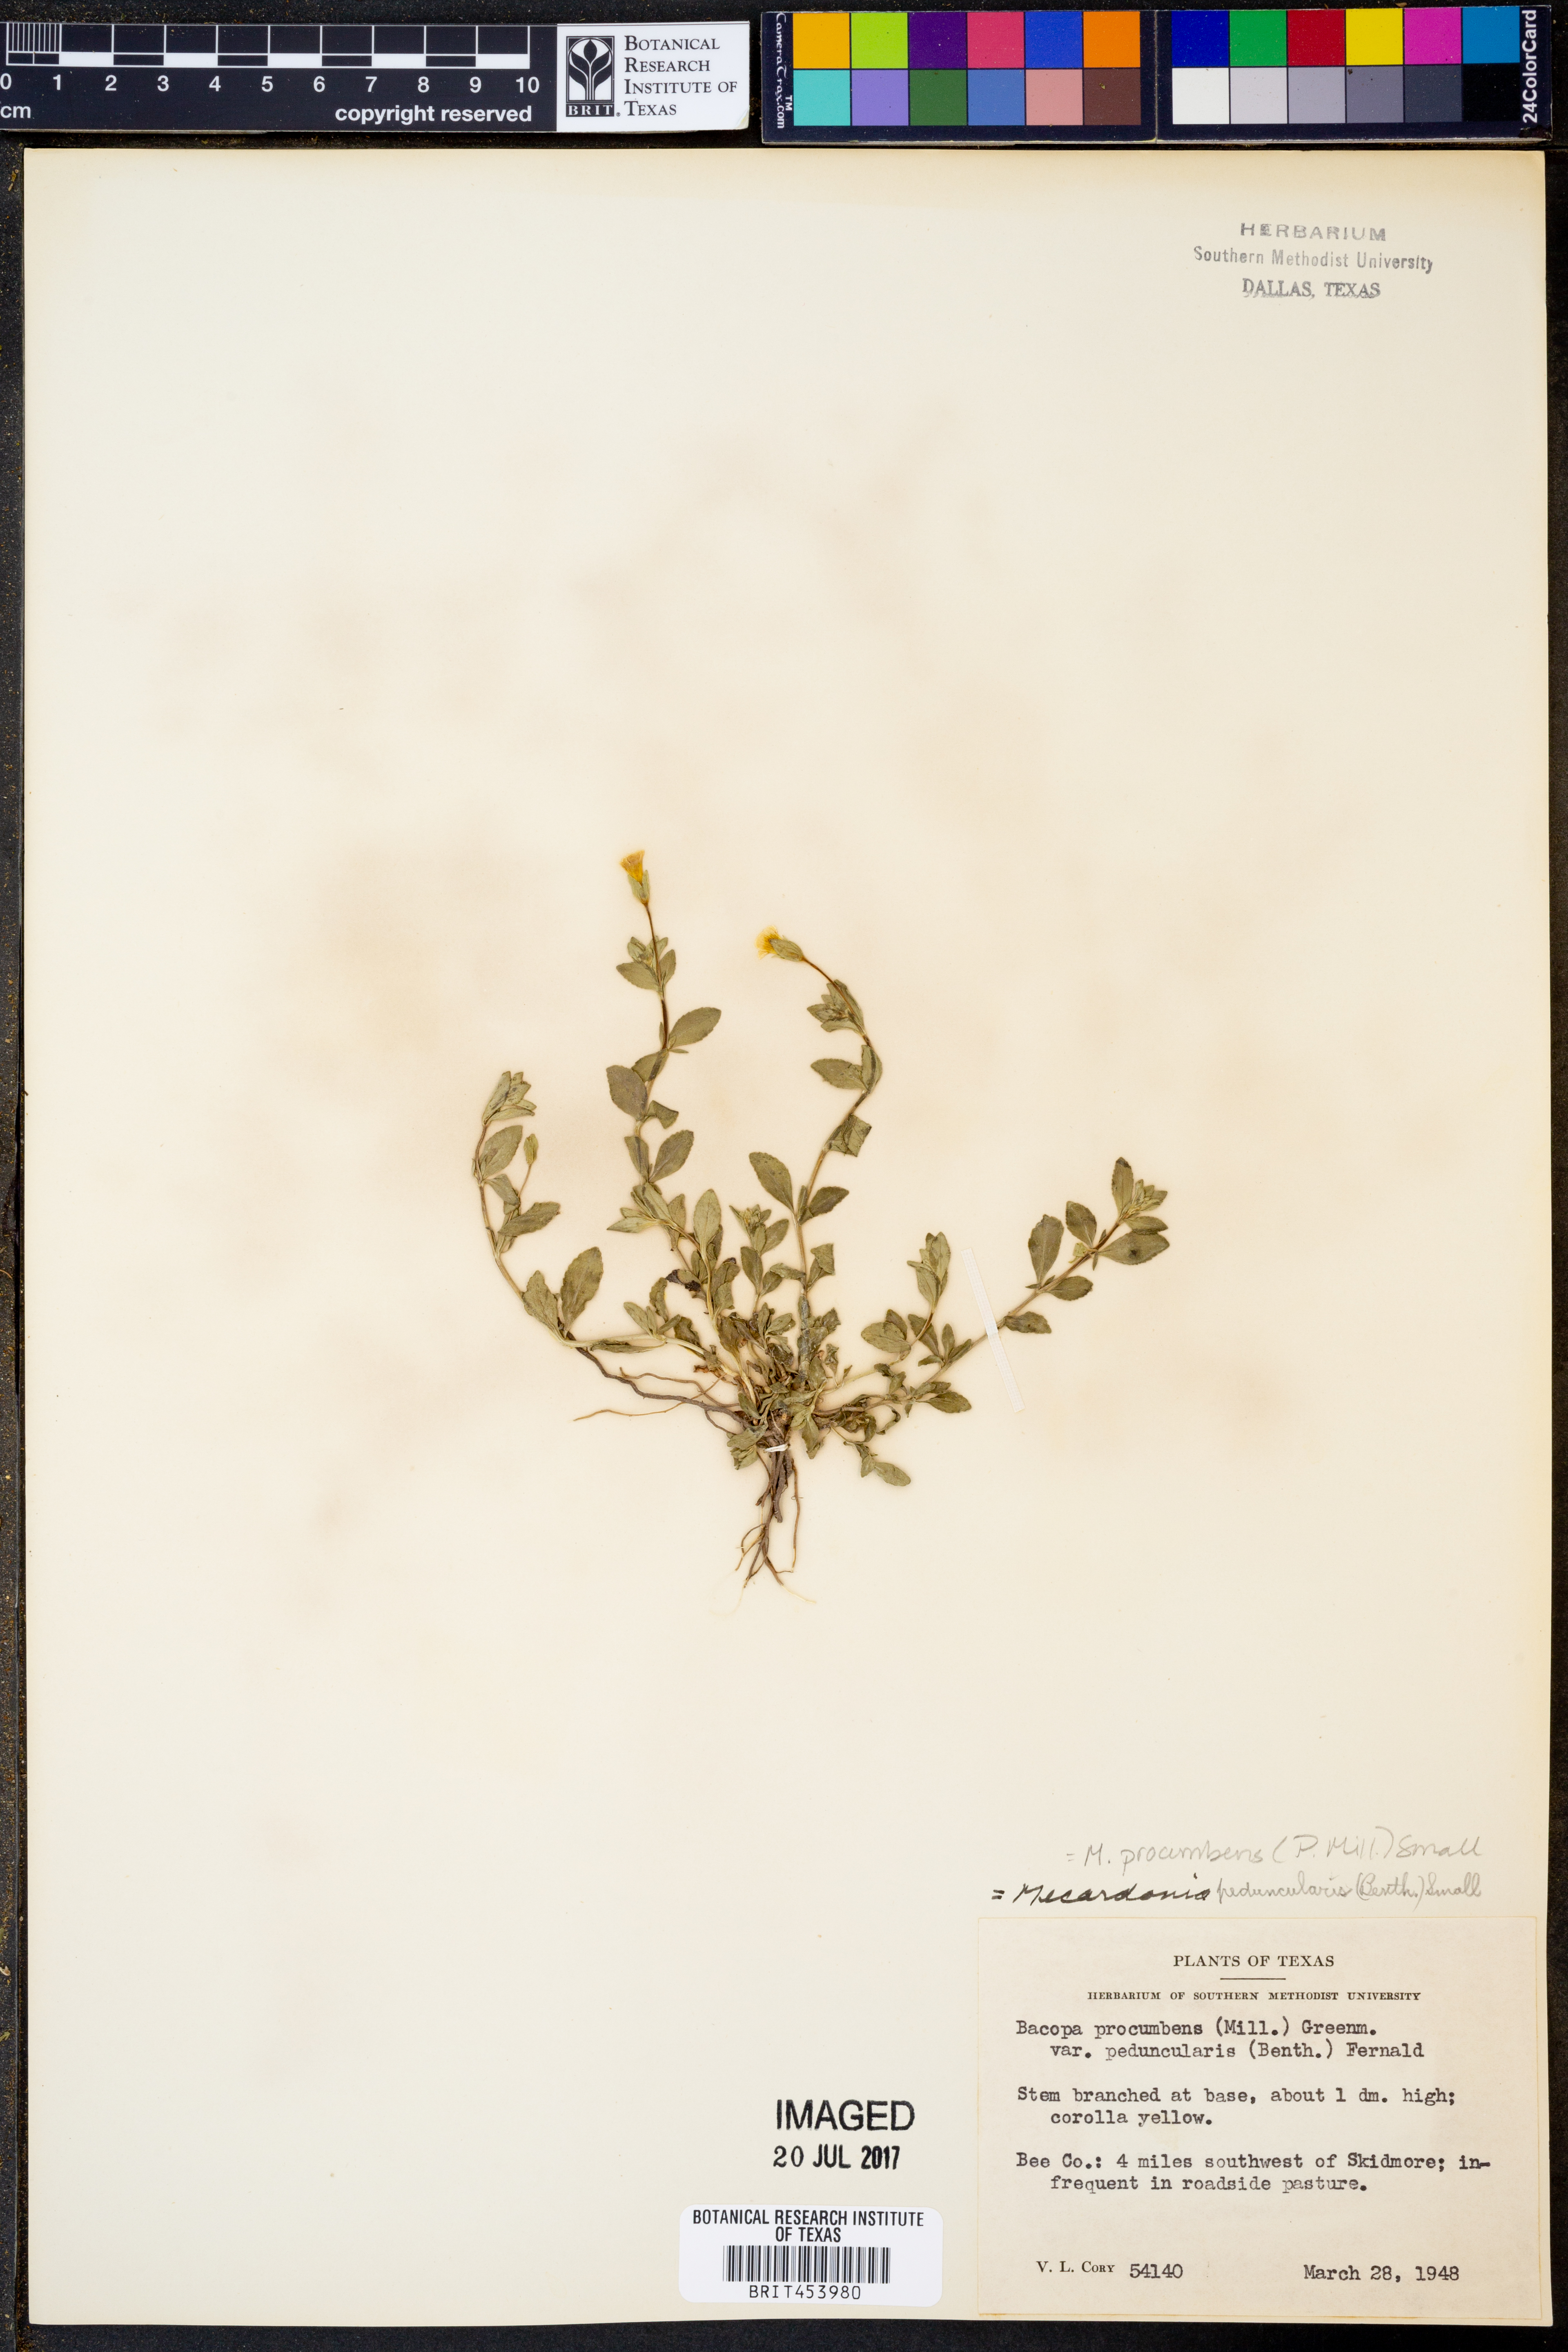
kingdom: Plantae
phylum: Tracheophyta
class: Magnoliopsida
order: Lamiales
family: Plantaginaceae
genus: Mecardonia
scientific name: Mecardonia procumbens
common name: Baby jump-up
